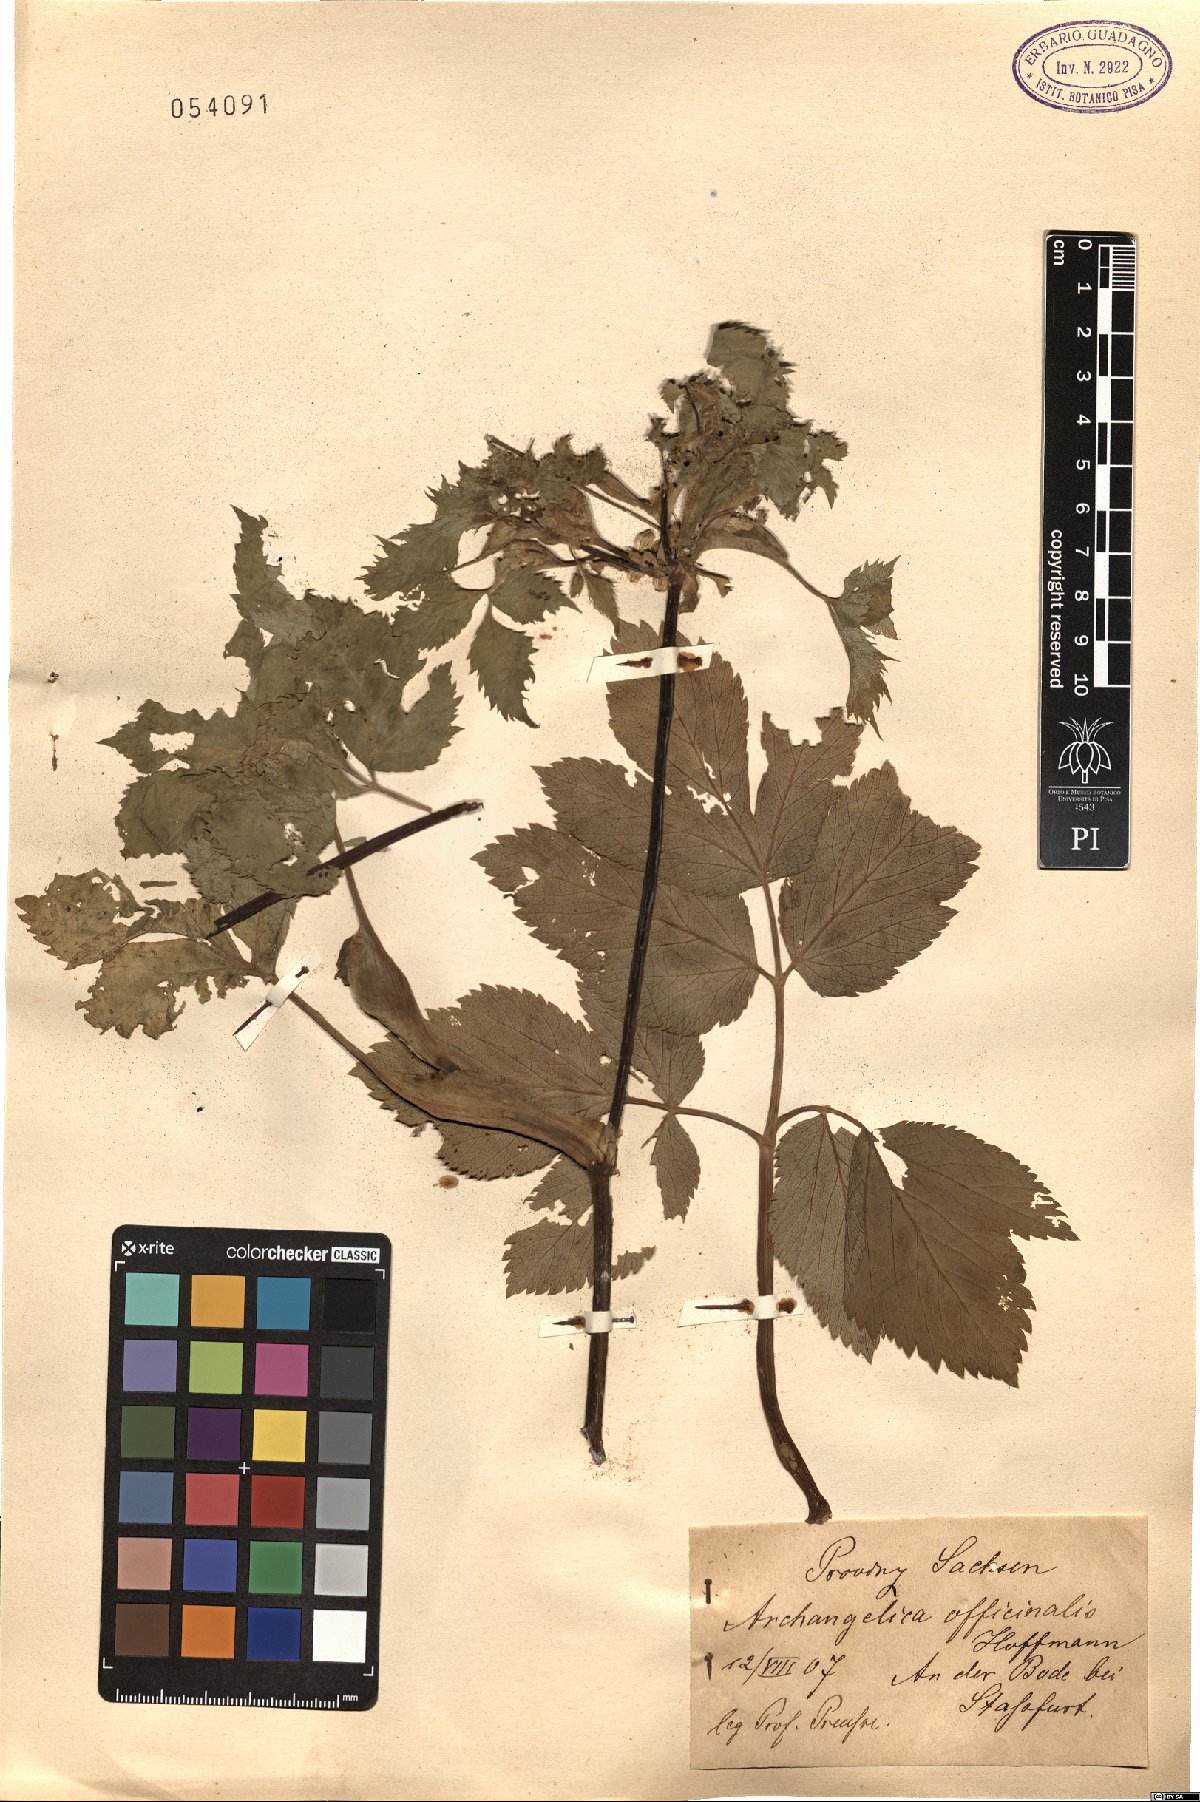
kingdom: Plantae
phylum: Tracheophyta
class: Magnoliopsida
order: Apiales
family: Apiaceae
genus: Angelica
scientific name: Angelica archangelica
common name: Garden angelica
